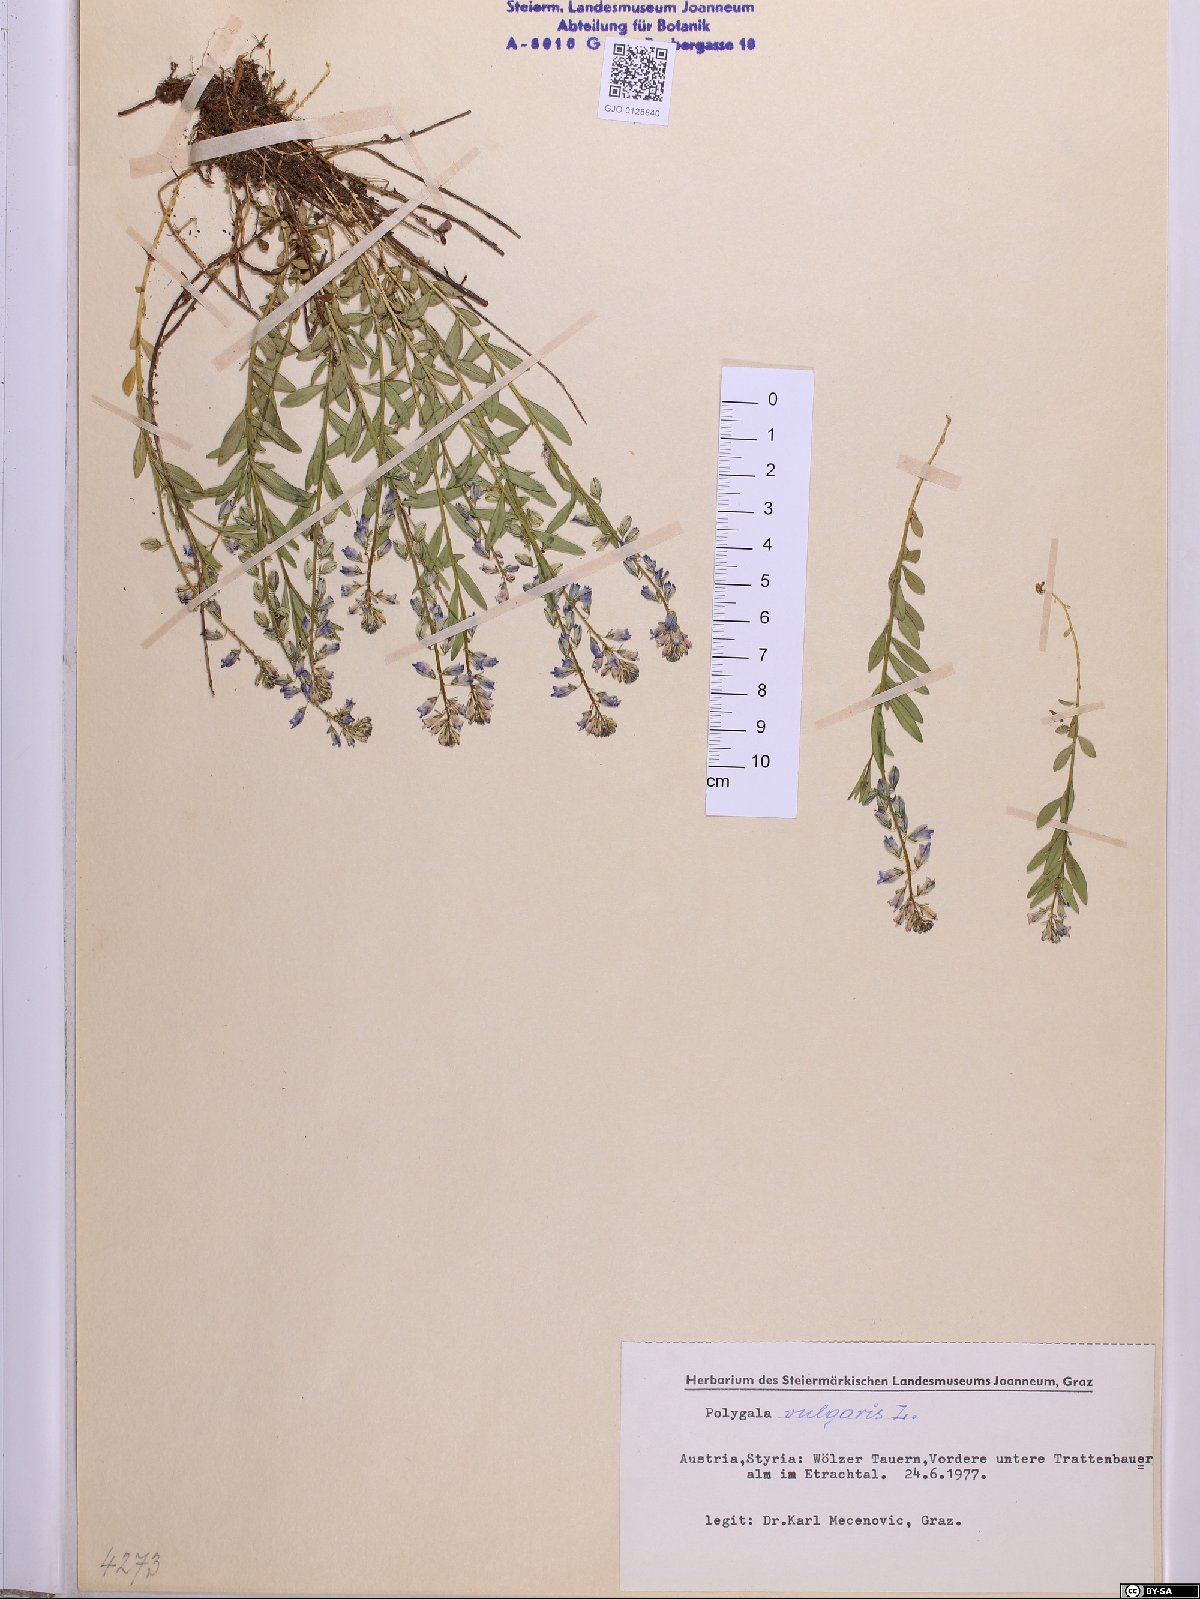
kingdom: Plantae
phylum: Tracheophyta
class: Magnoliopsida
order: Fabales
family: Polygalaceae
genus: Polygala
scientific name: Polygala vulgaris
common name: Common milkwort
